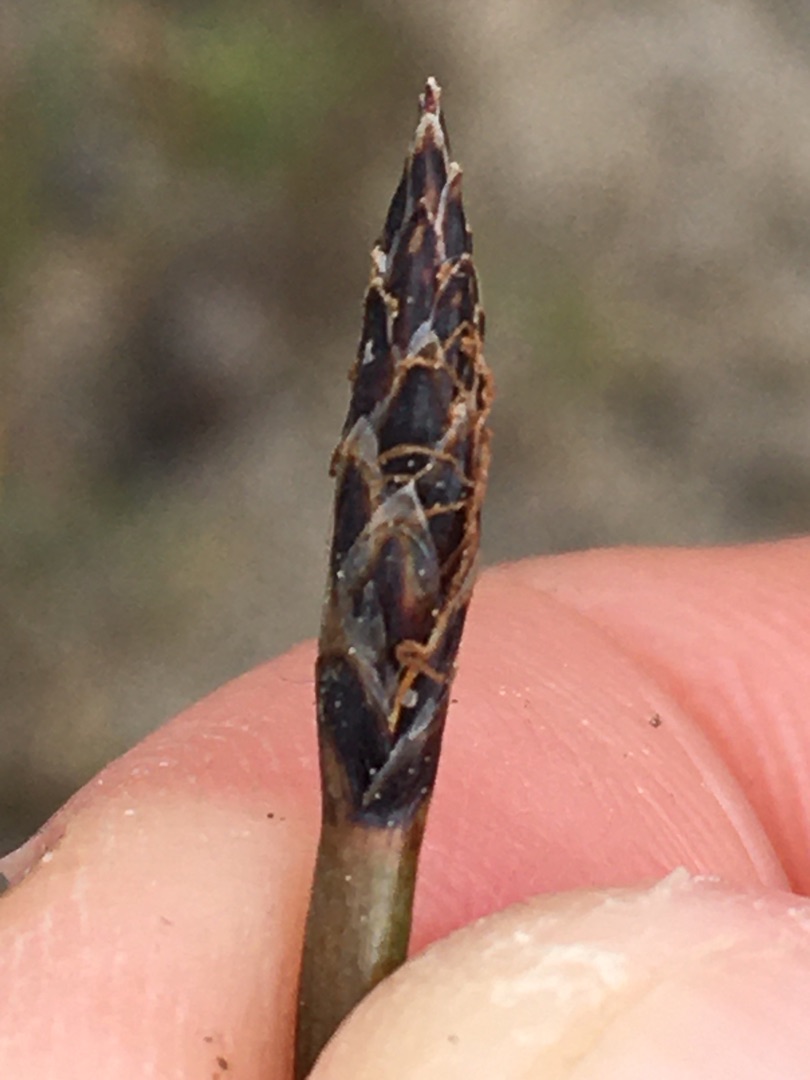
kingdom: Plantae
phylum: Tracheophyta
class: Liliopsida
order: Poales
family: Cyperaceae
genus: Eleocharis
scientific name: Eleocharis palustris
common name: Almindelig sumpstrå
